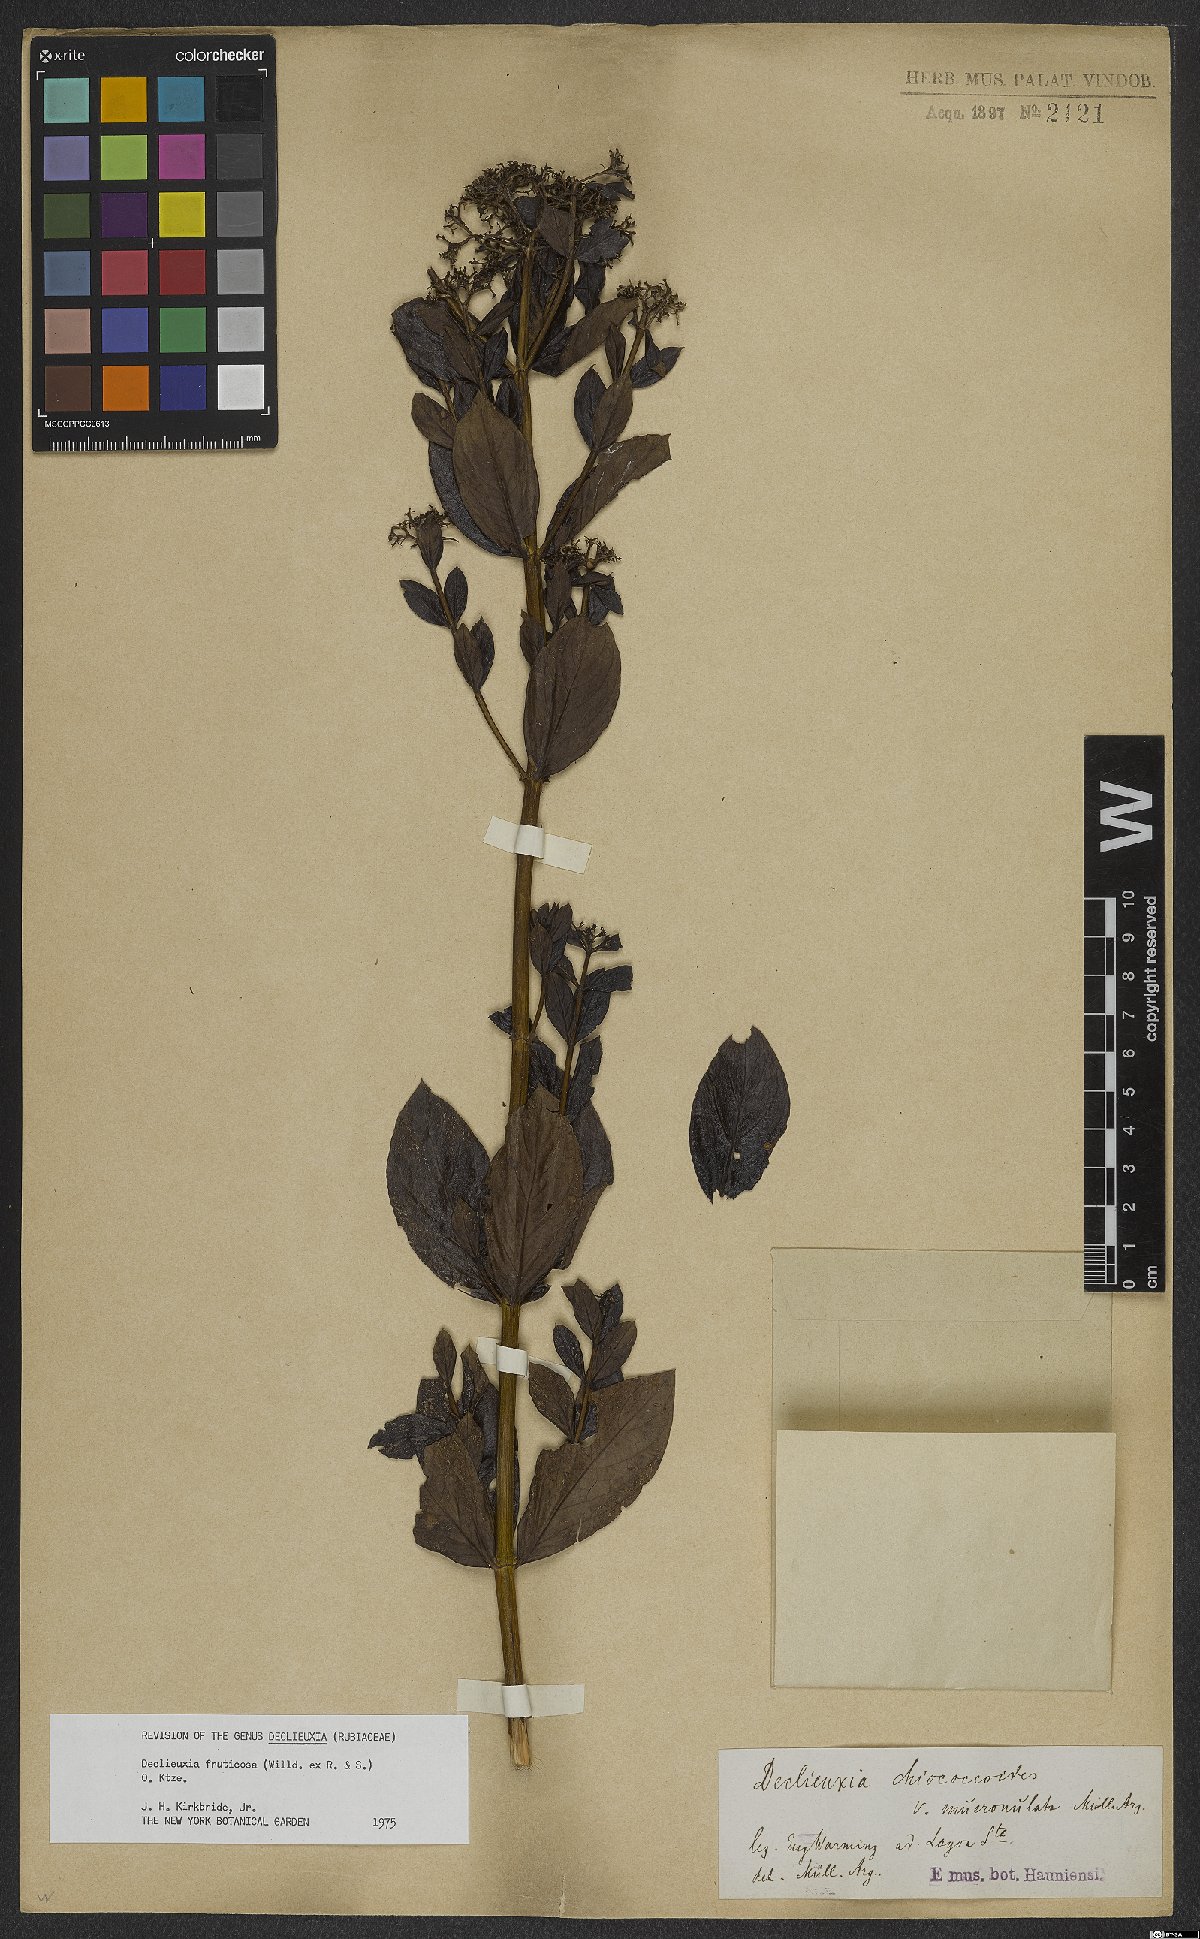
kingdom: Plantae
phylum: Tracheophyta
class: Magnoliopsida
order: Gentianales
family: Rubiaceae
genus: Declieuxia
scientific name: Declieuxia fruticosa
